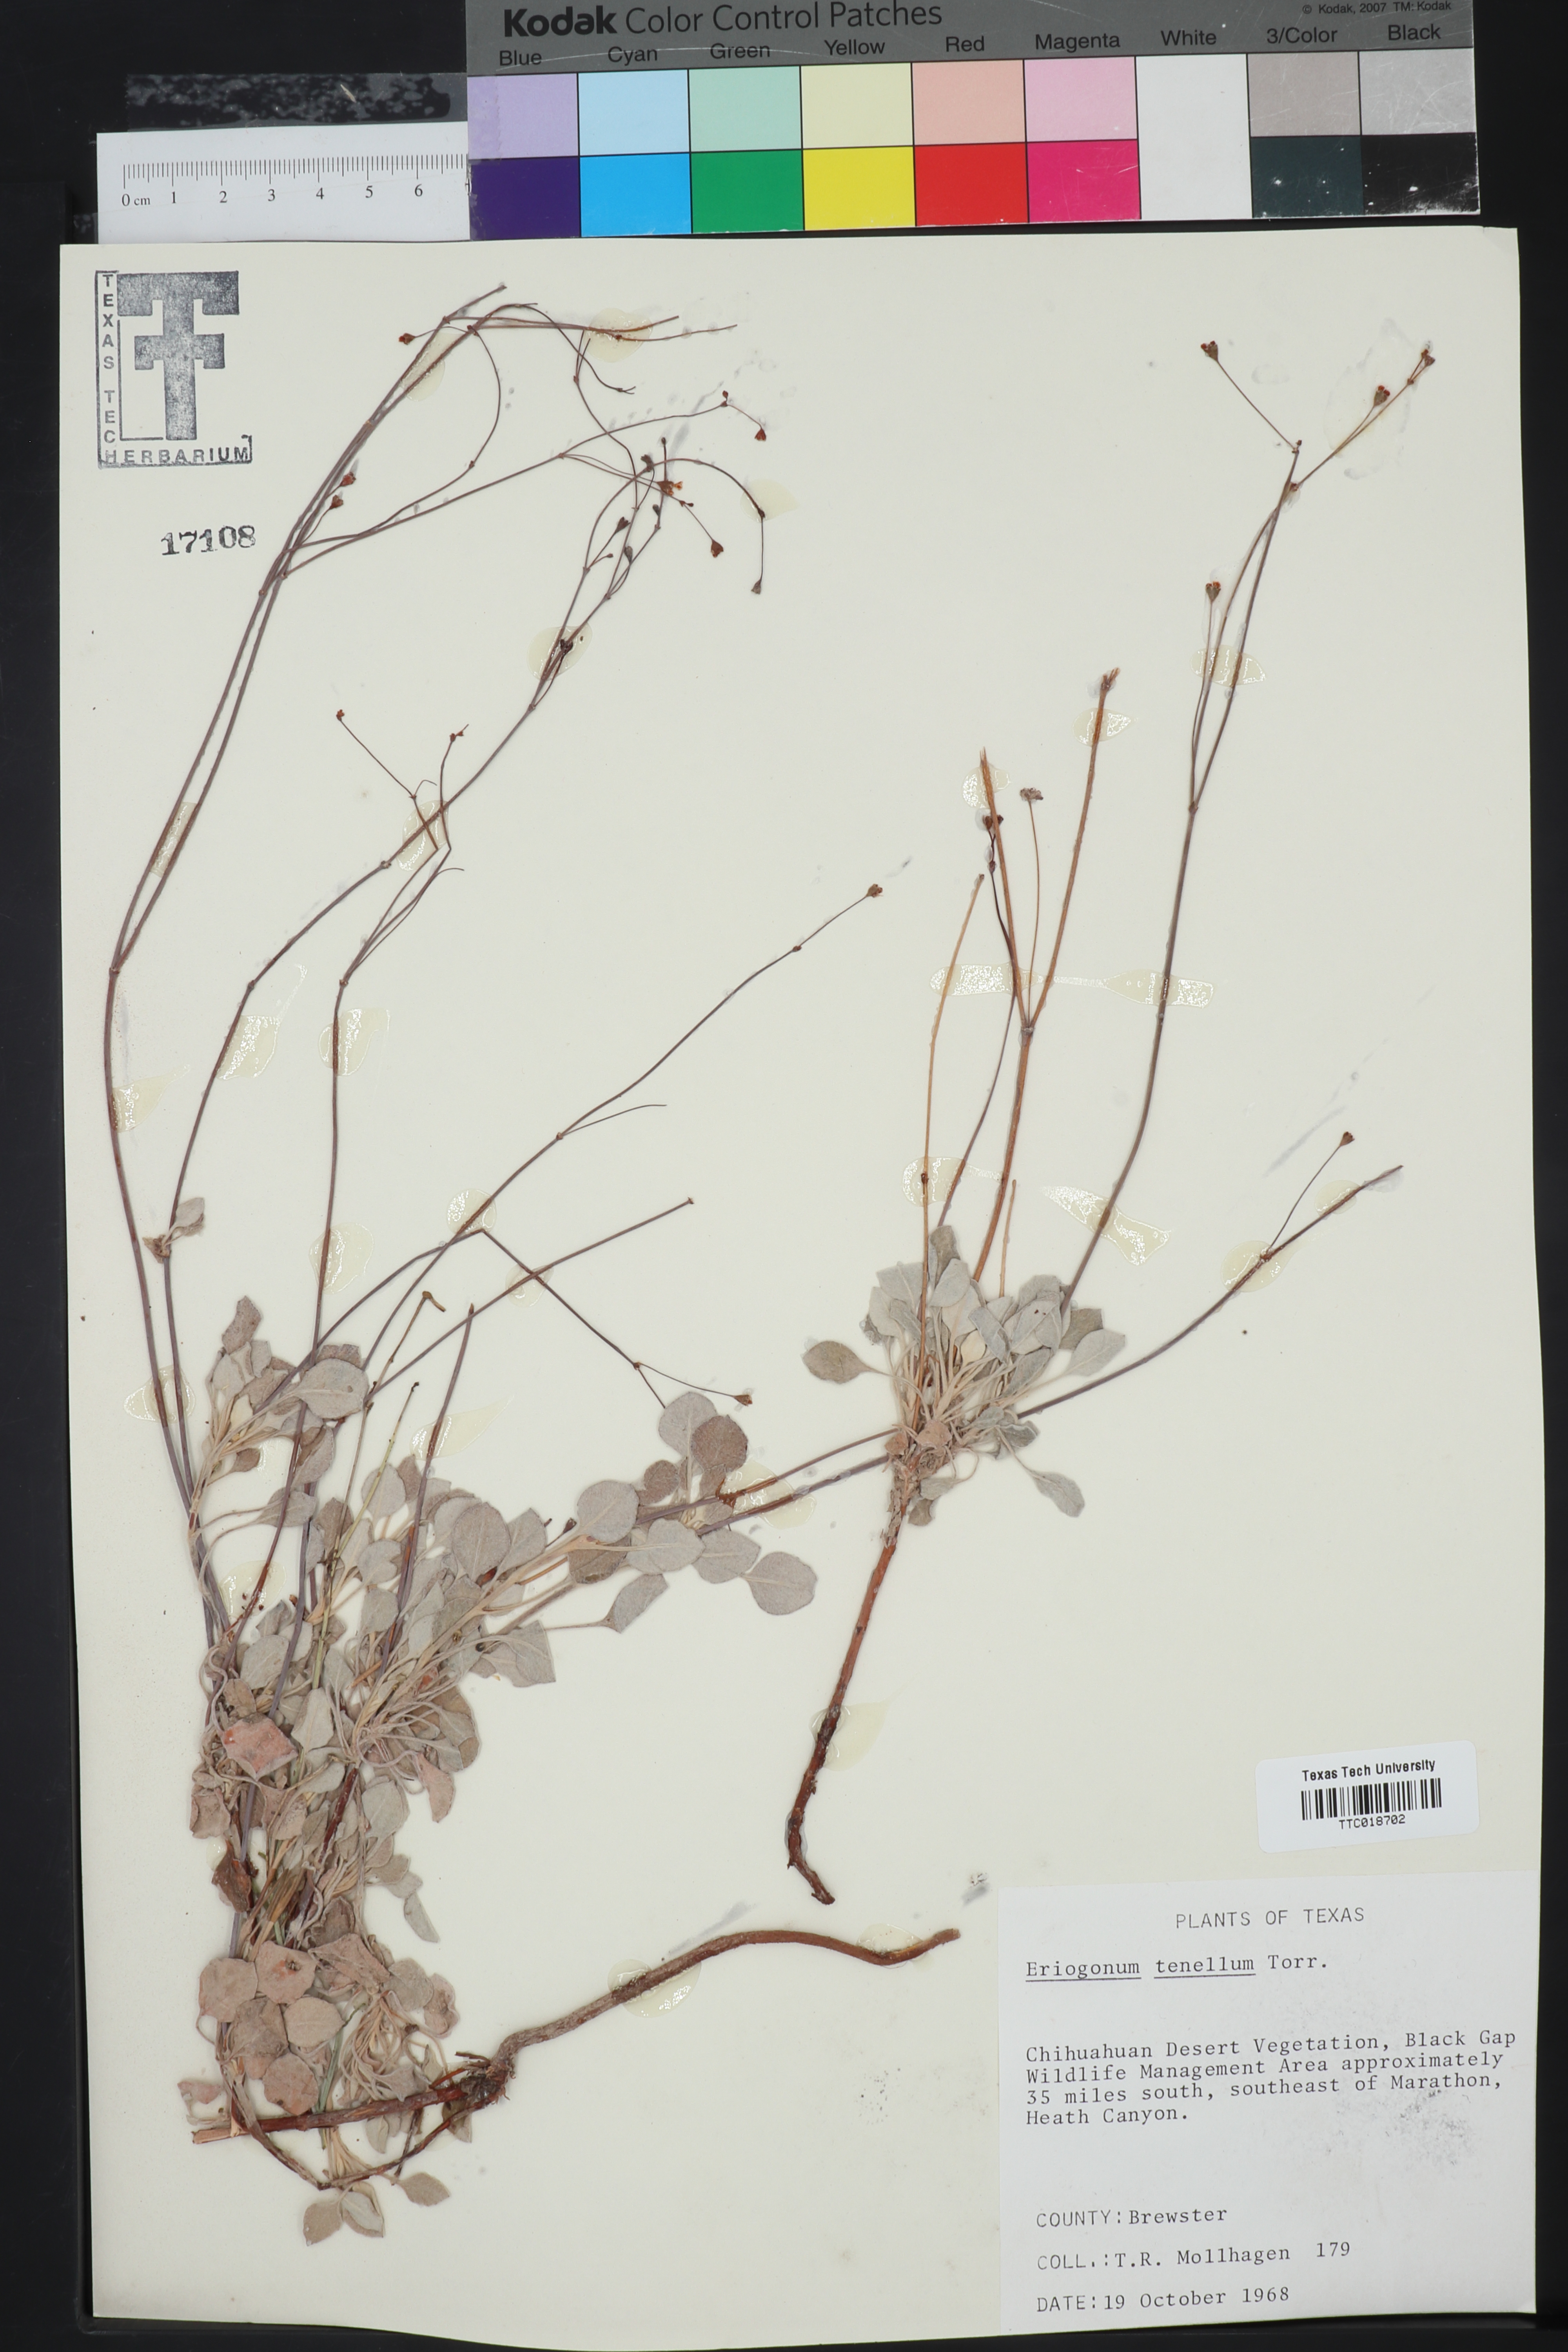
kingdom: Plantae
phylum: Tracheophyta
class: Magnoliopsida
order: Caryophyllales
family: Polygonaceae
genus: Eriogonum
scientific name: Eriogonum tenellum
